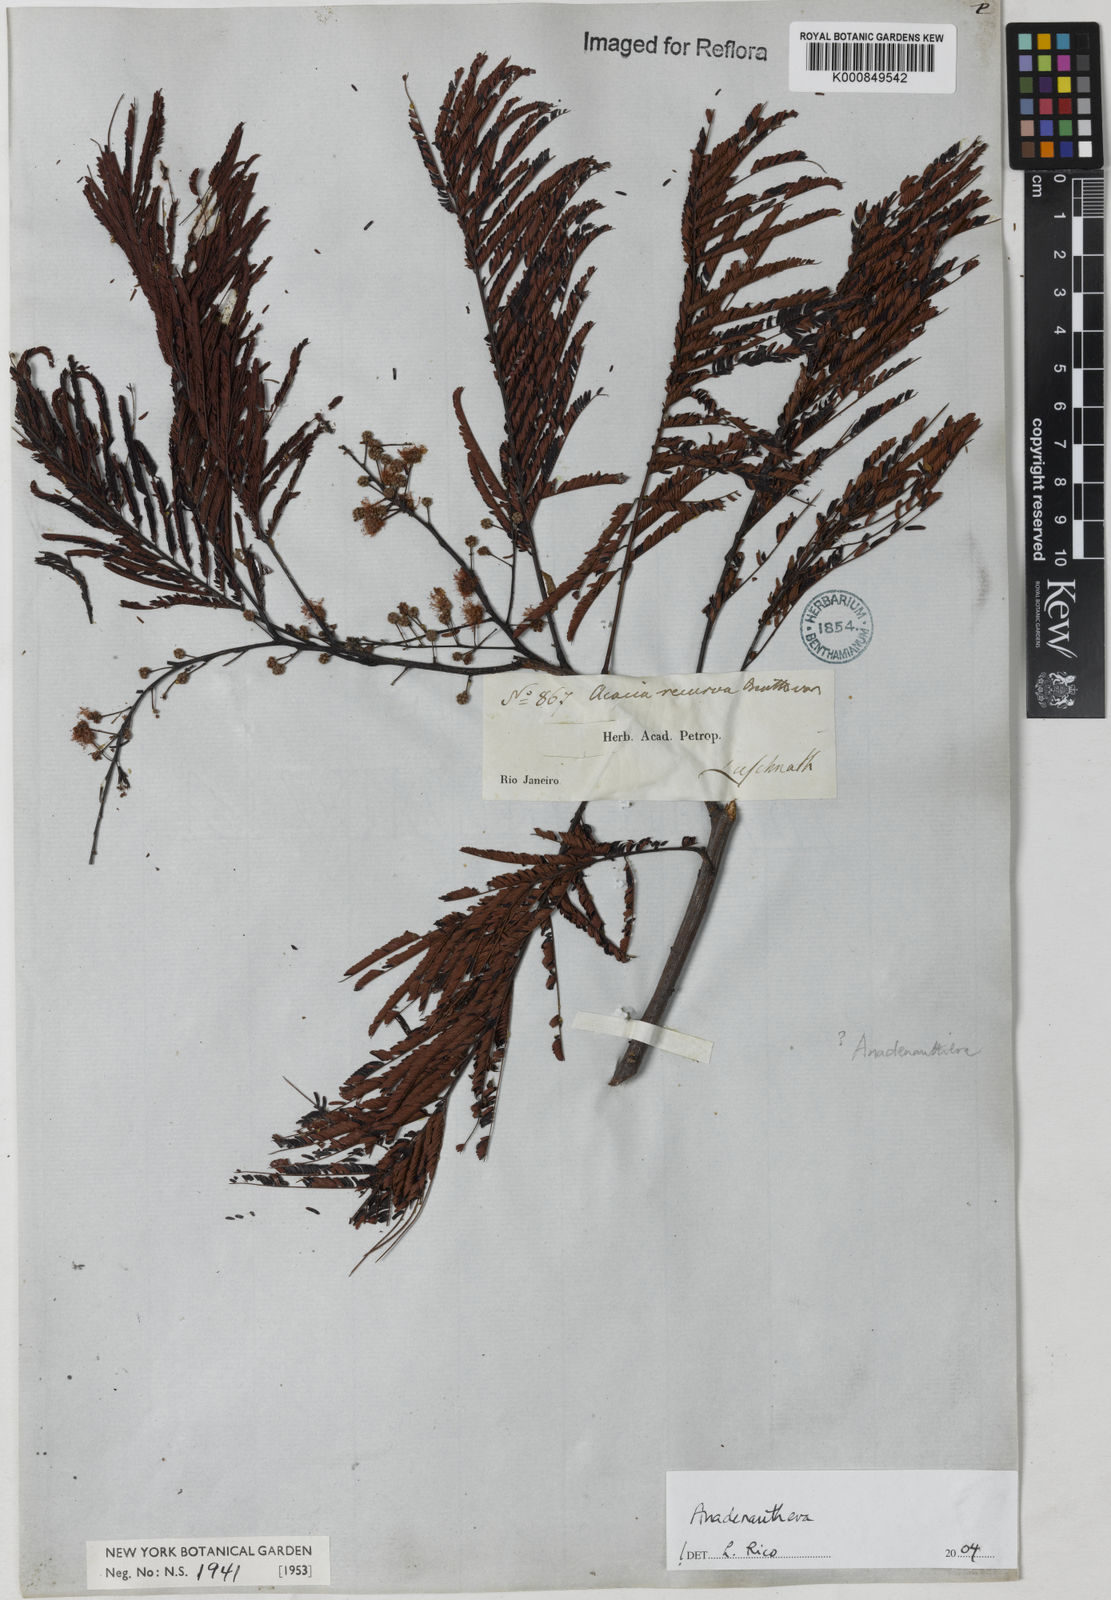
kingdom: Plantae
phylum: Tracheophyta
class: Magnoliopsida
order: Fabales
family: Fabaceae
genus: Anadenanthera
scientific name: Anadenanthera
